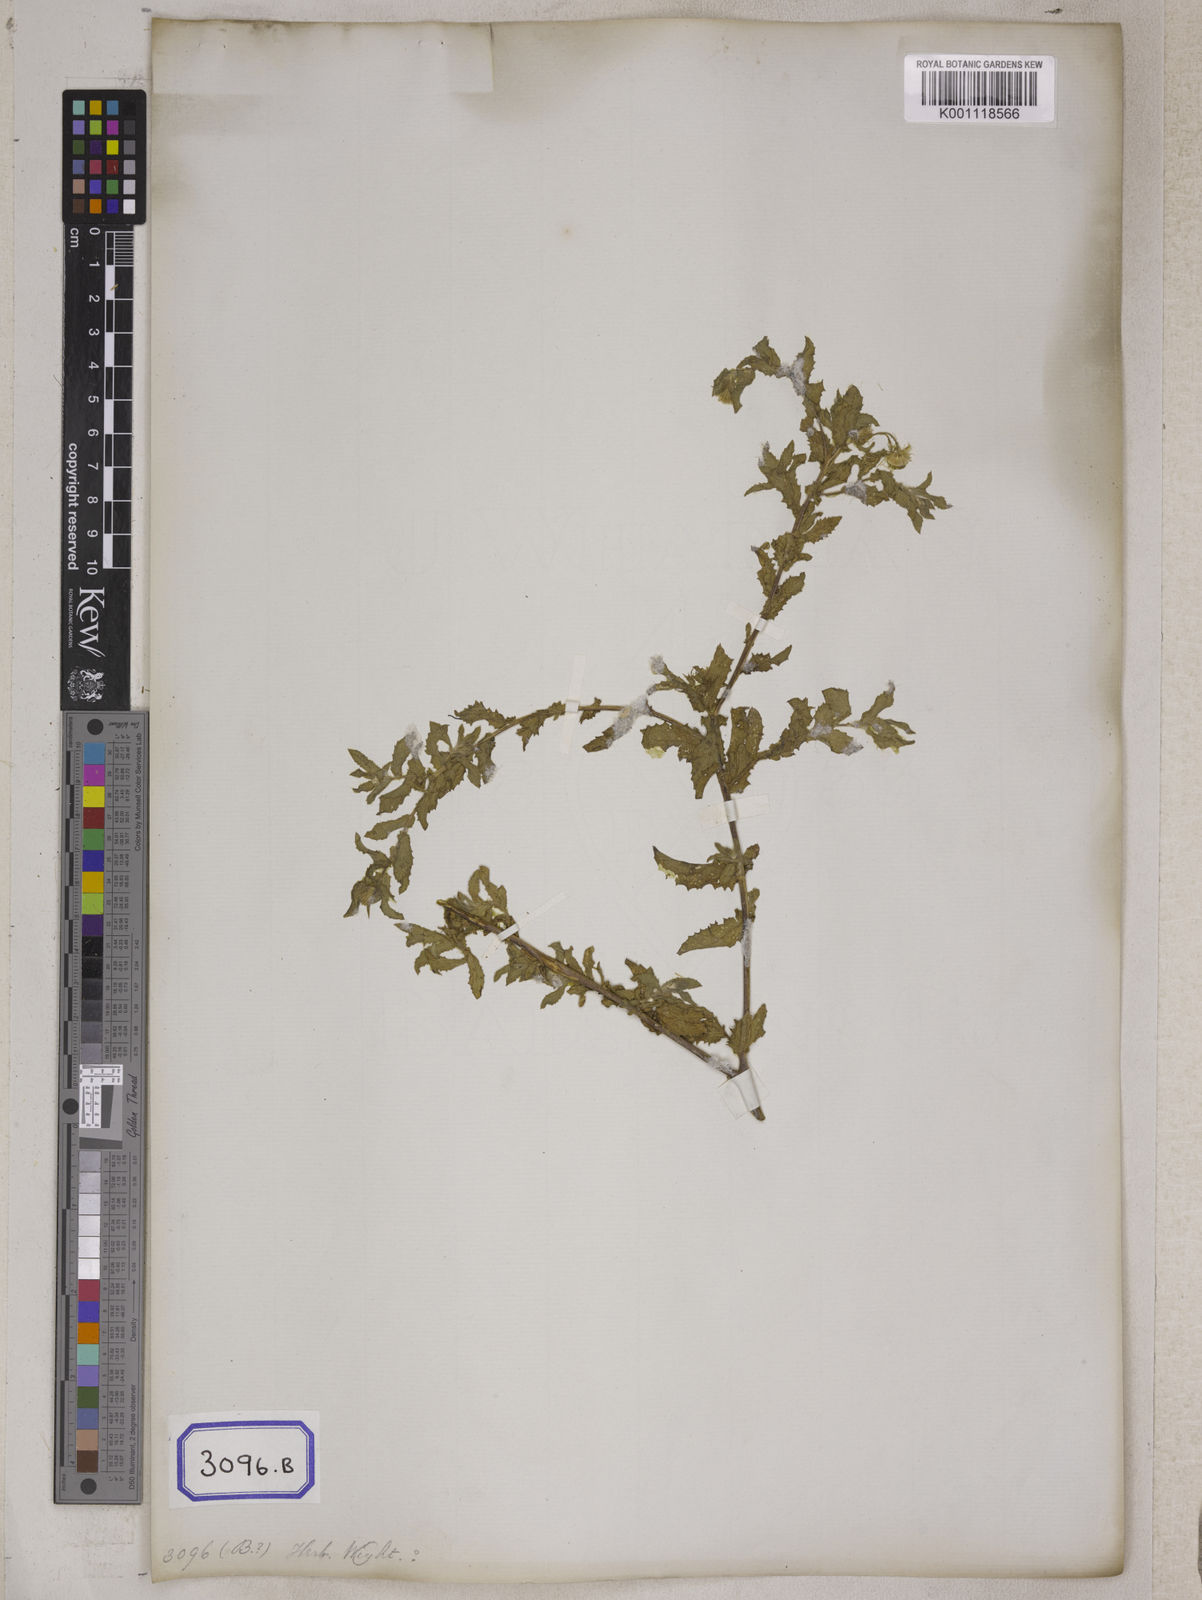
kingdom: Plantae
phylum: Tracheophyta
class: Magnoliopsida
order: Asterales
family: Asteraceae
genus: Blumea
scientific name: Blumea obliqua
